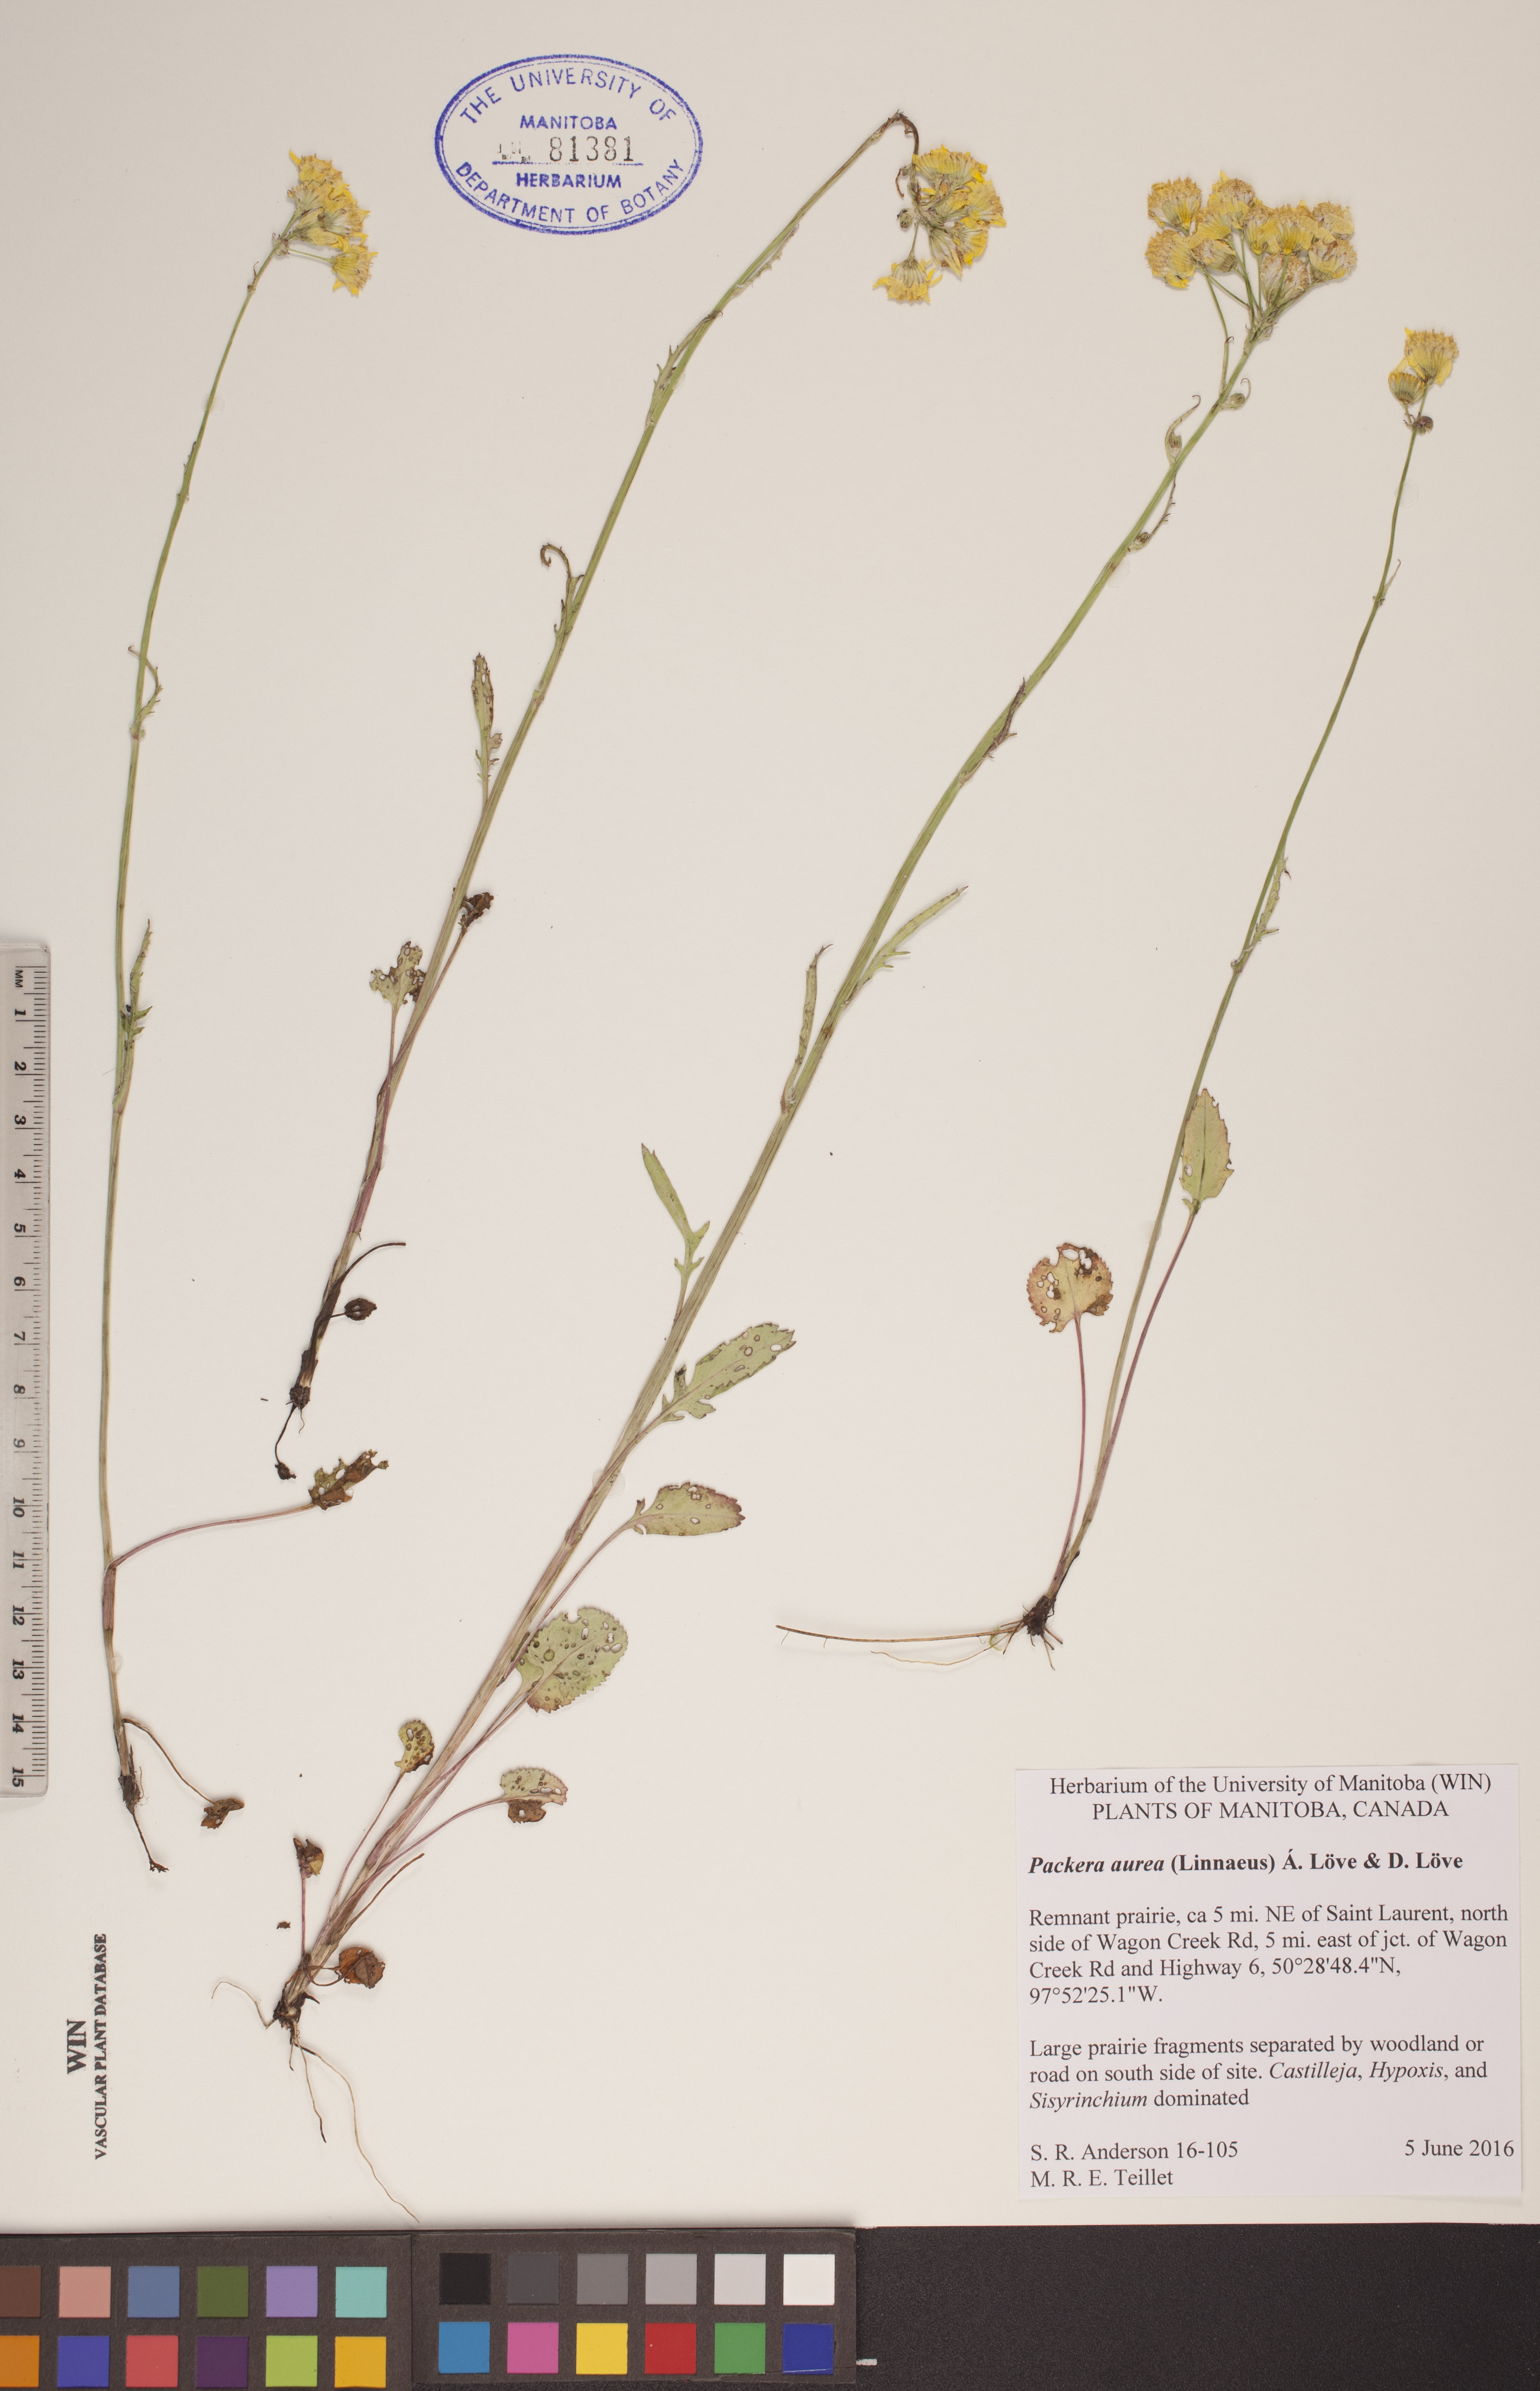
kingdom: Plantae
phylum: Tracheophyta
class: Magnoliopsida
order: Asterales
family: Asteraceae
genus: Packera
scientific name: Packera aurea
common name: Golden groundsel
